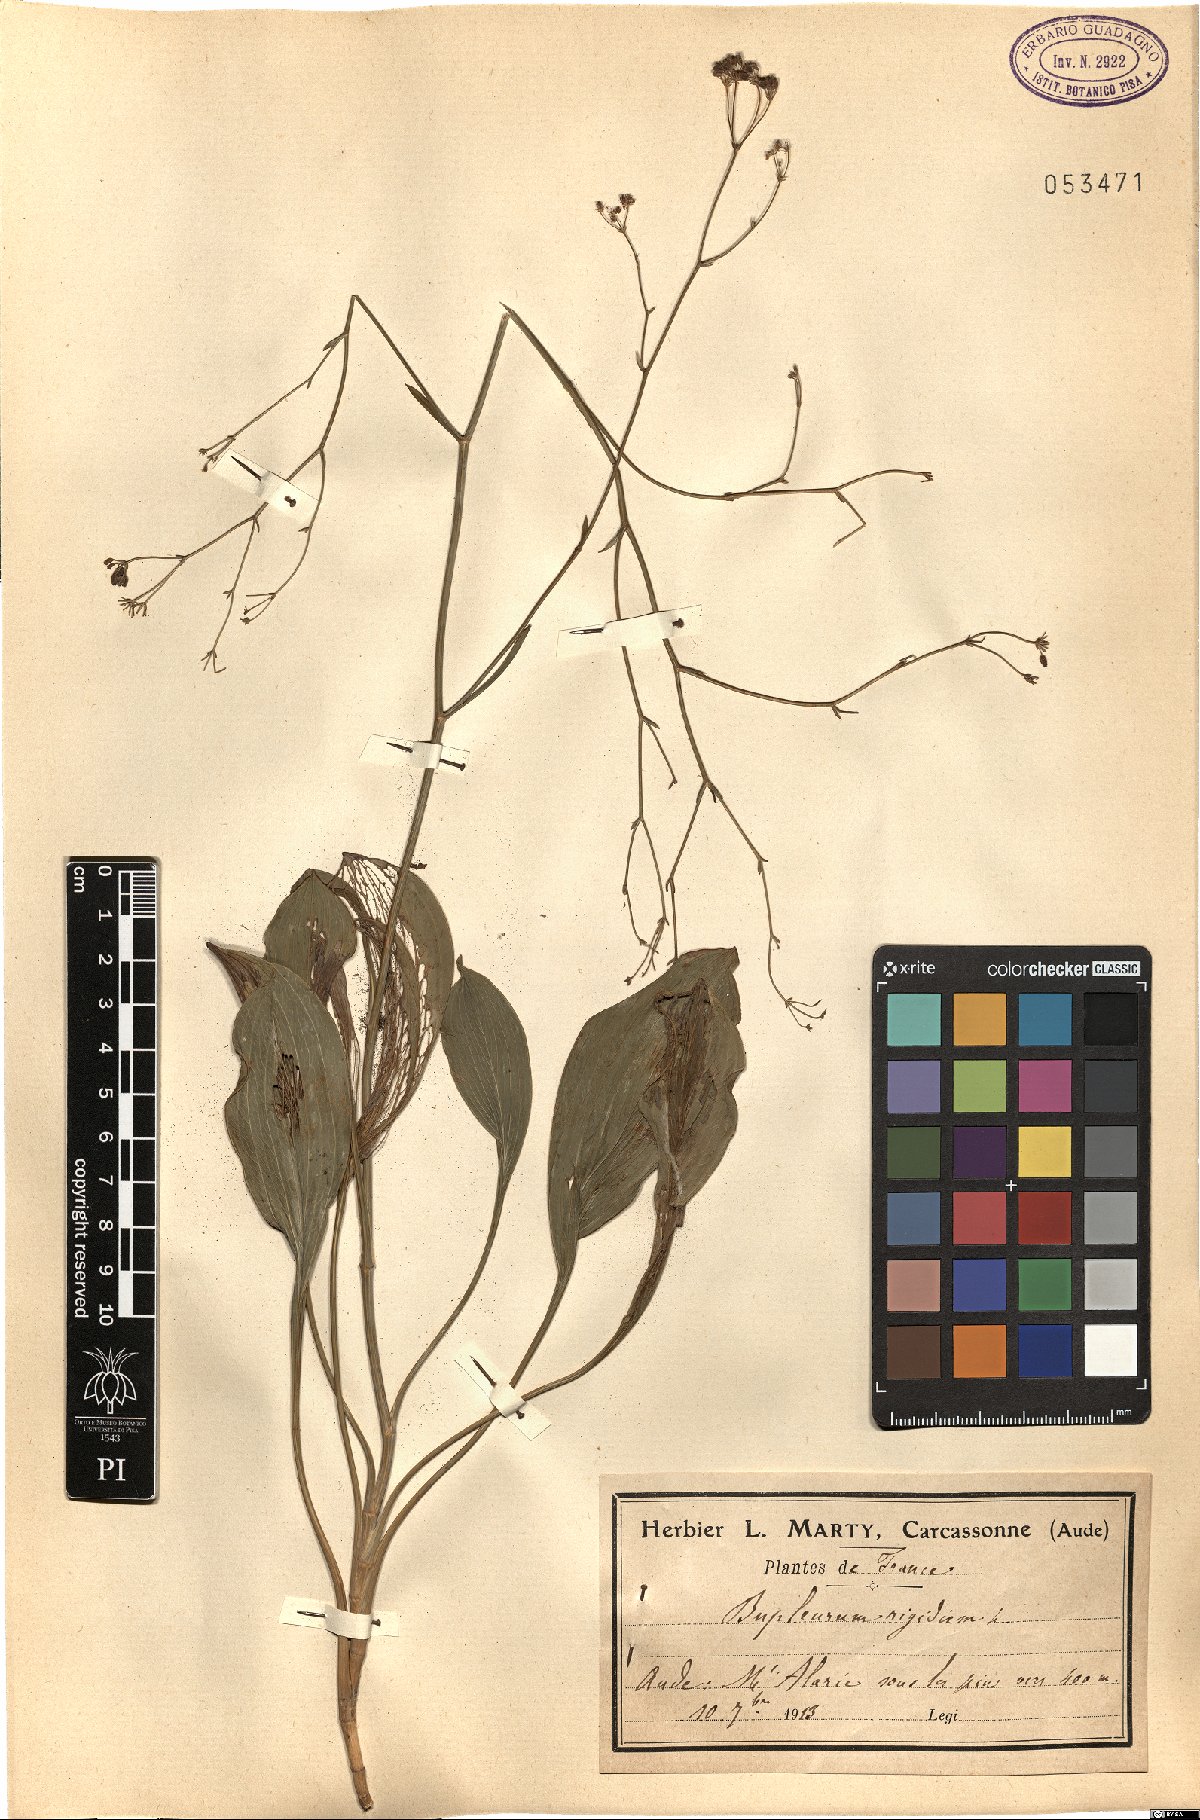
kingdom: Plantae
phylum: Tracheophyta
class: Magnoliopsida
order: Apiales
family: Apiaceae
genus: Bupleurum
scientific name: Bupleurum rigidum
